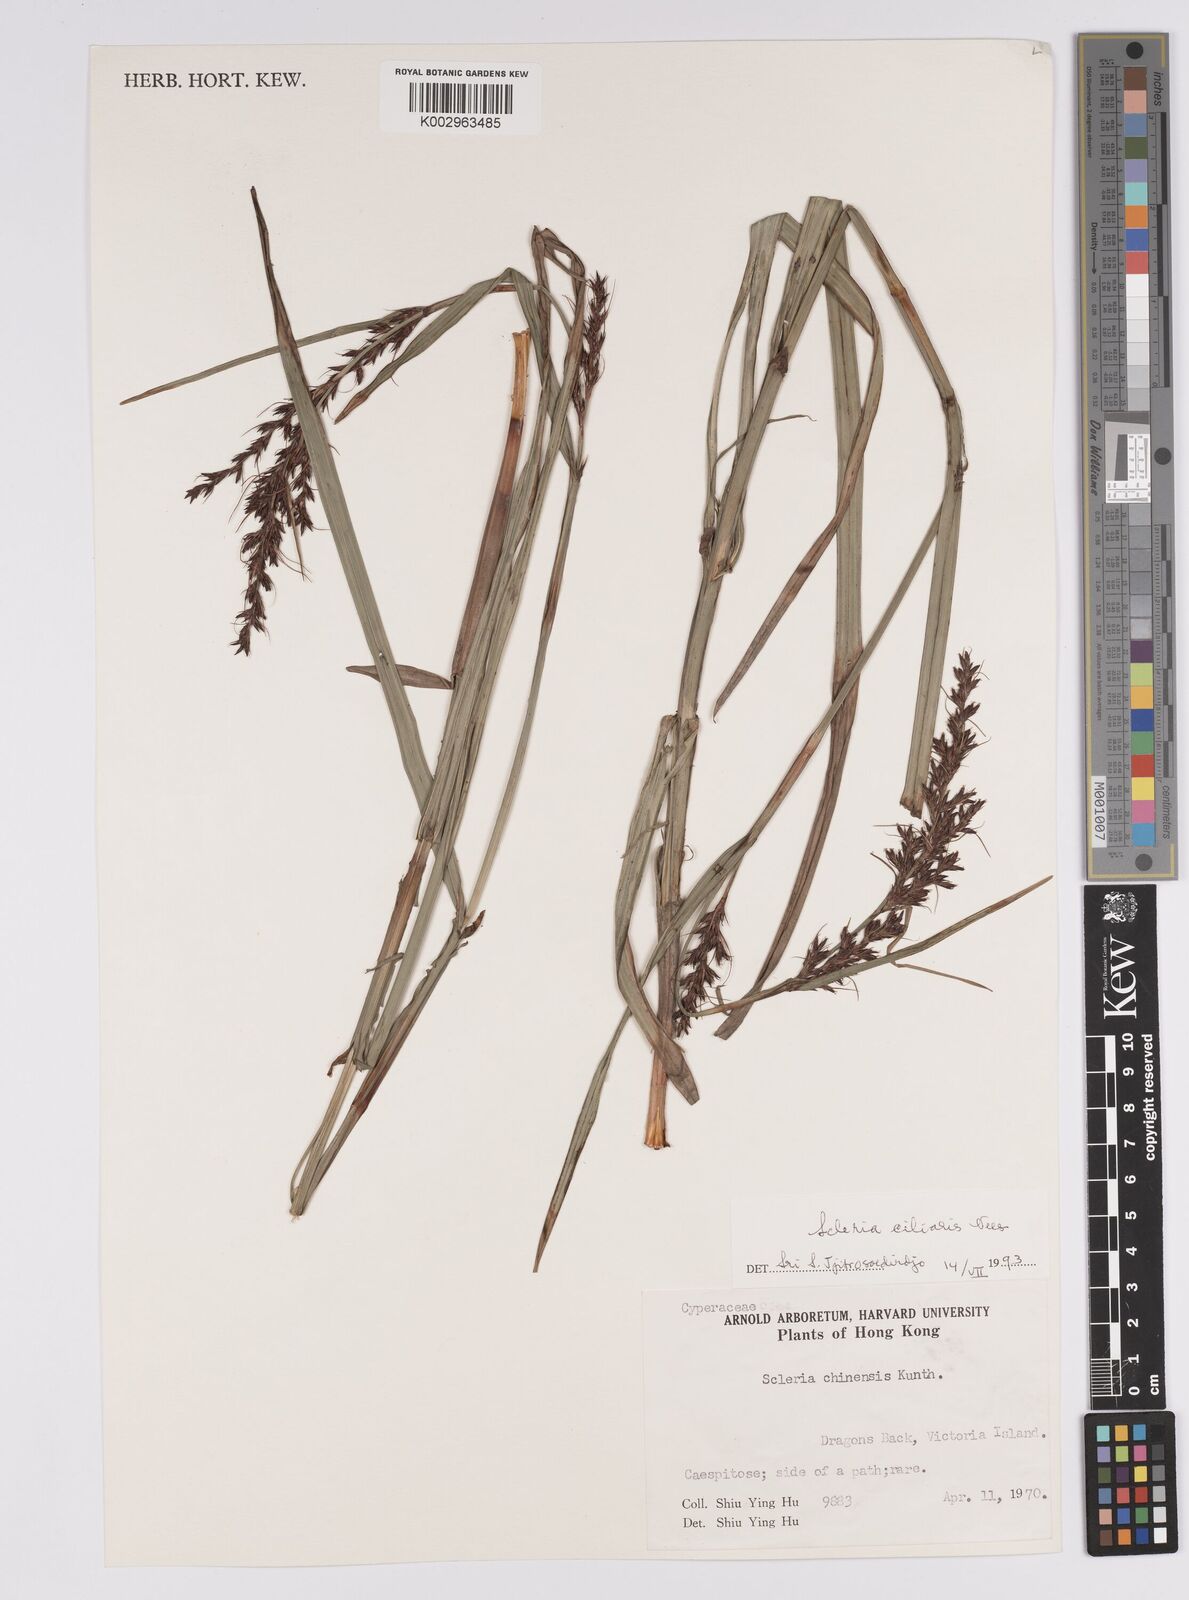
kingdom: Plantae
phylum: Tracheophyta
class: Liliopsida
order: Poales
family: Cyperaceae
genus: Scleria
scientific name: Scleria ciliaris
